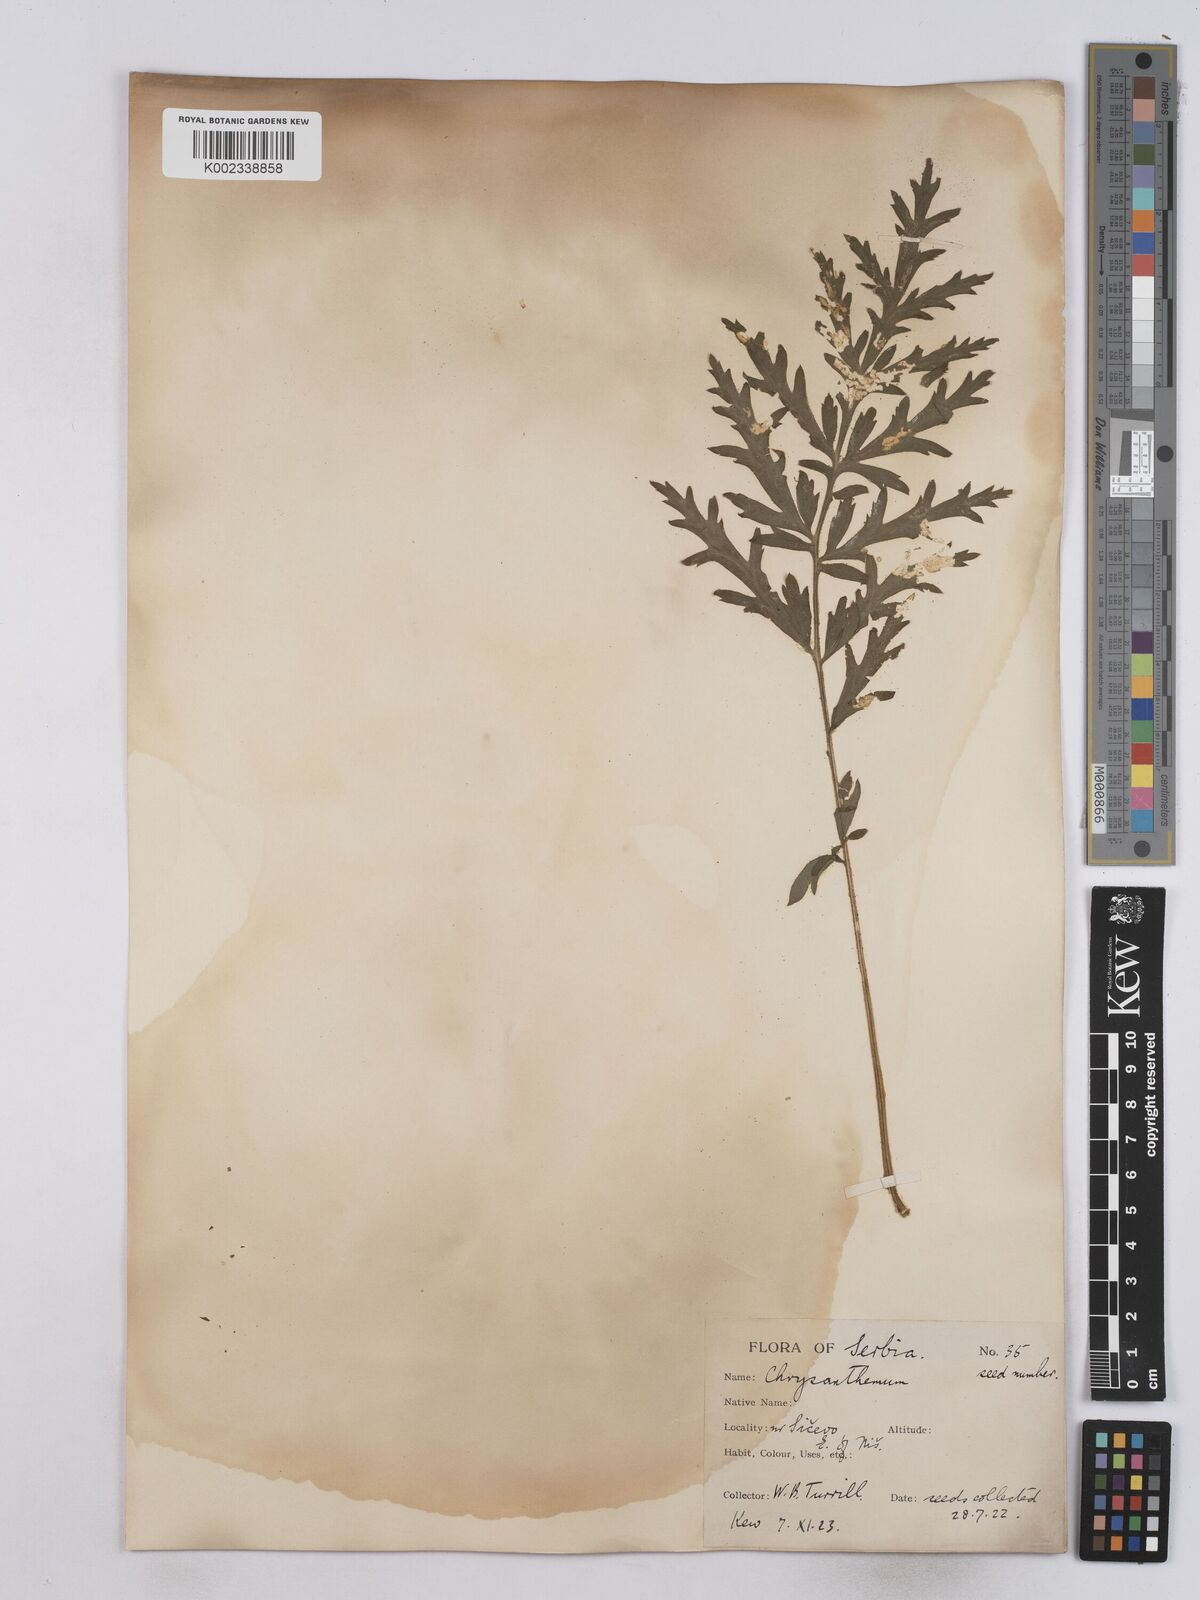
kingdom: Plantae
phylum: Tracheophyta
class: Magnoliopsida
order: Asterales
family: Asteraceae
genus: Tanacetum
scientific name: Tanacetum macrophyllum
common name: Rayed tansy
